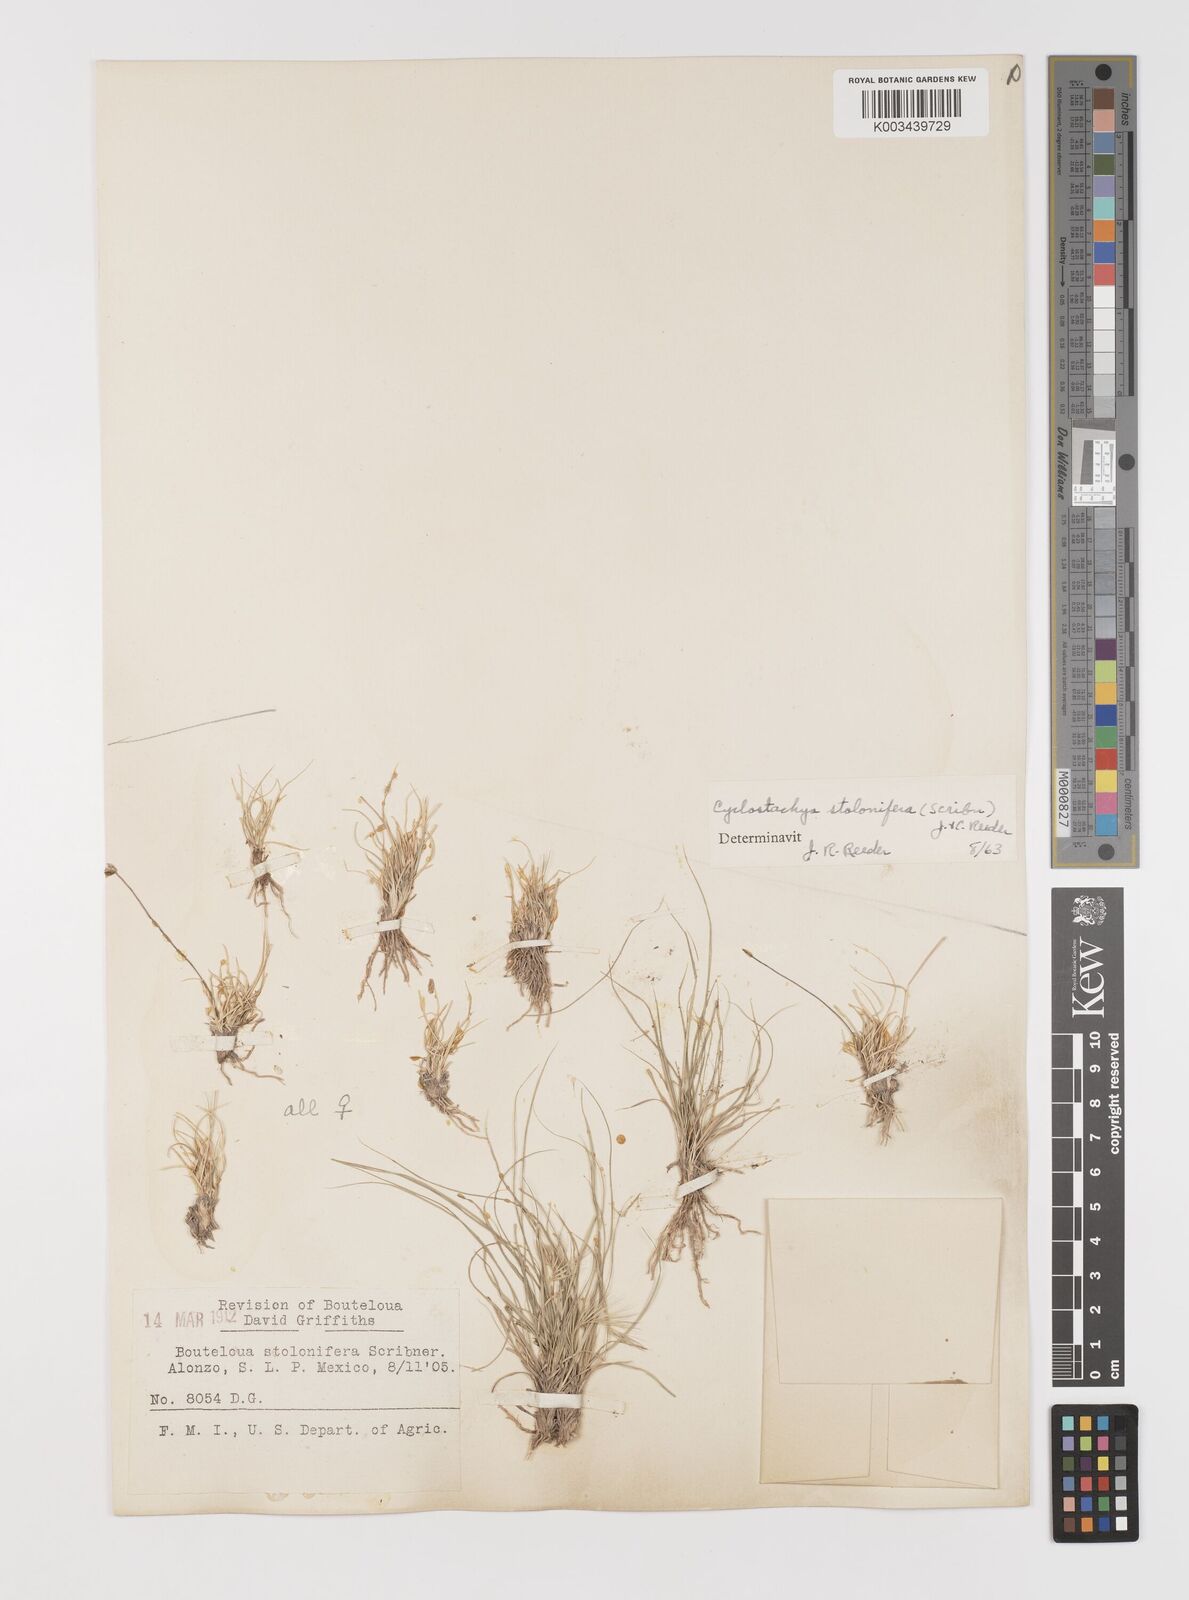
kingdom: Plantae
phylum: Tracheophyta
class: Liliopsida
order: Poales
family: Poaceae
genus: Bouteloua
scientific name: Bouteloua stolonifera
